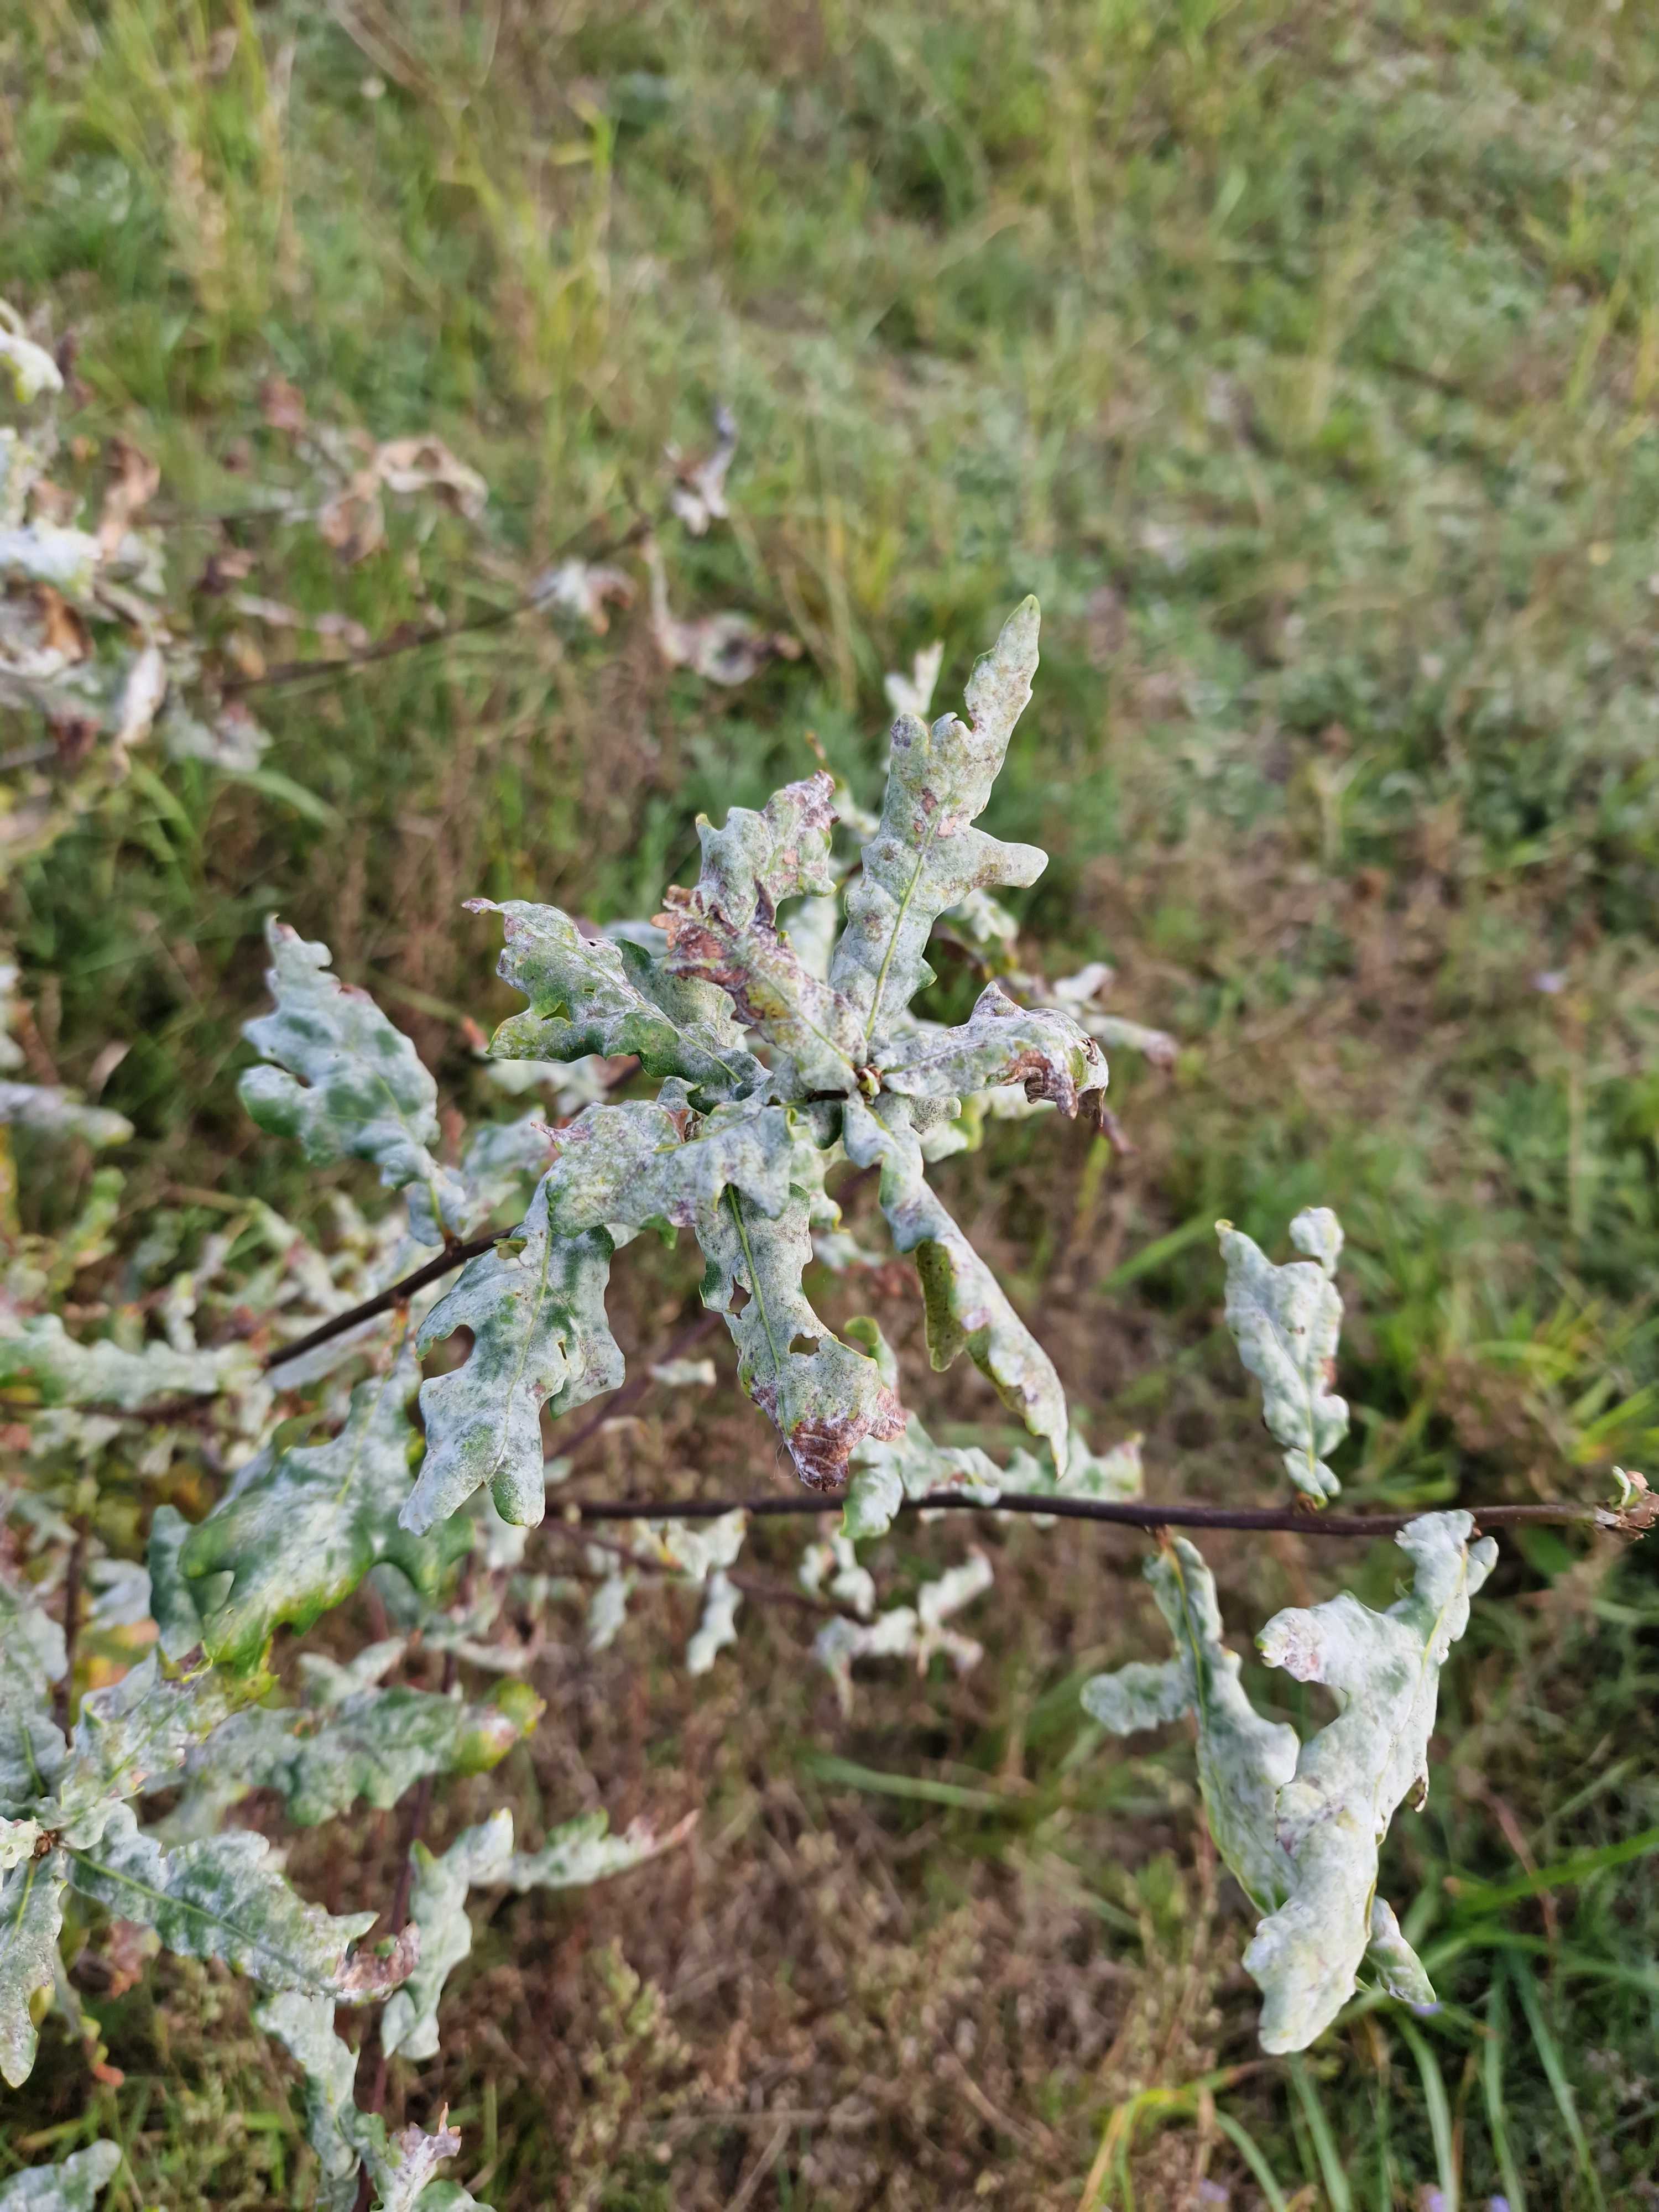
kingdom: Fungi
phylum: Ascomycota
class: Leotiomycetes
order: Helotiales
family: Erysiphaceae
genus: Erysiphe
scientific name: Erysiphe alphitoides
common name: ege-meldug
